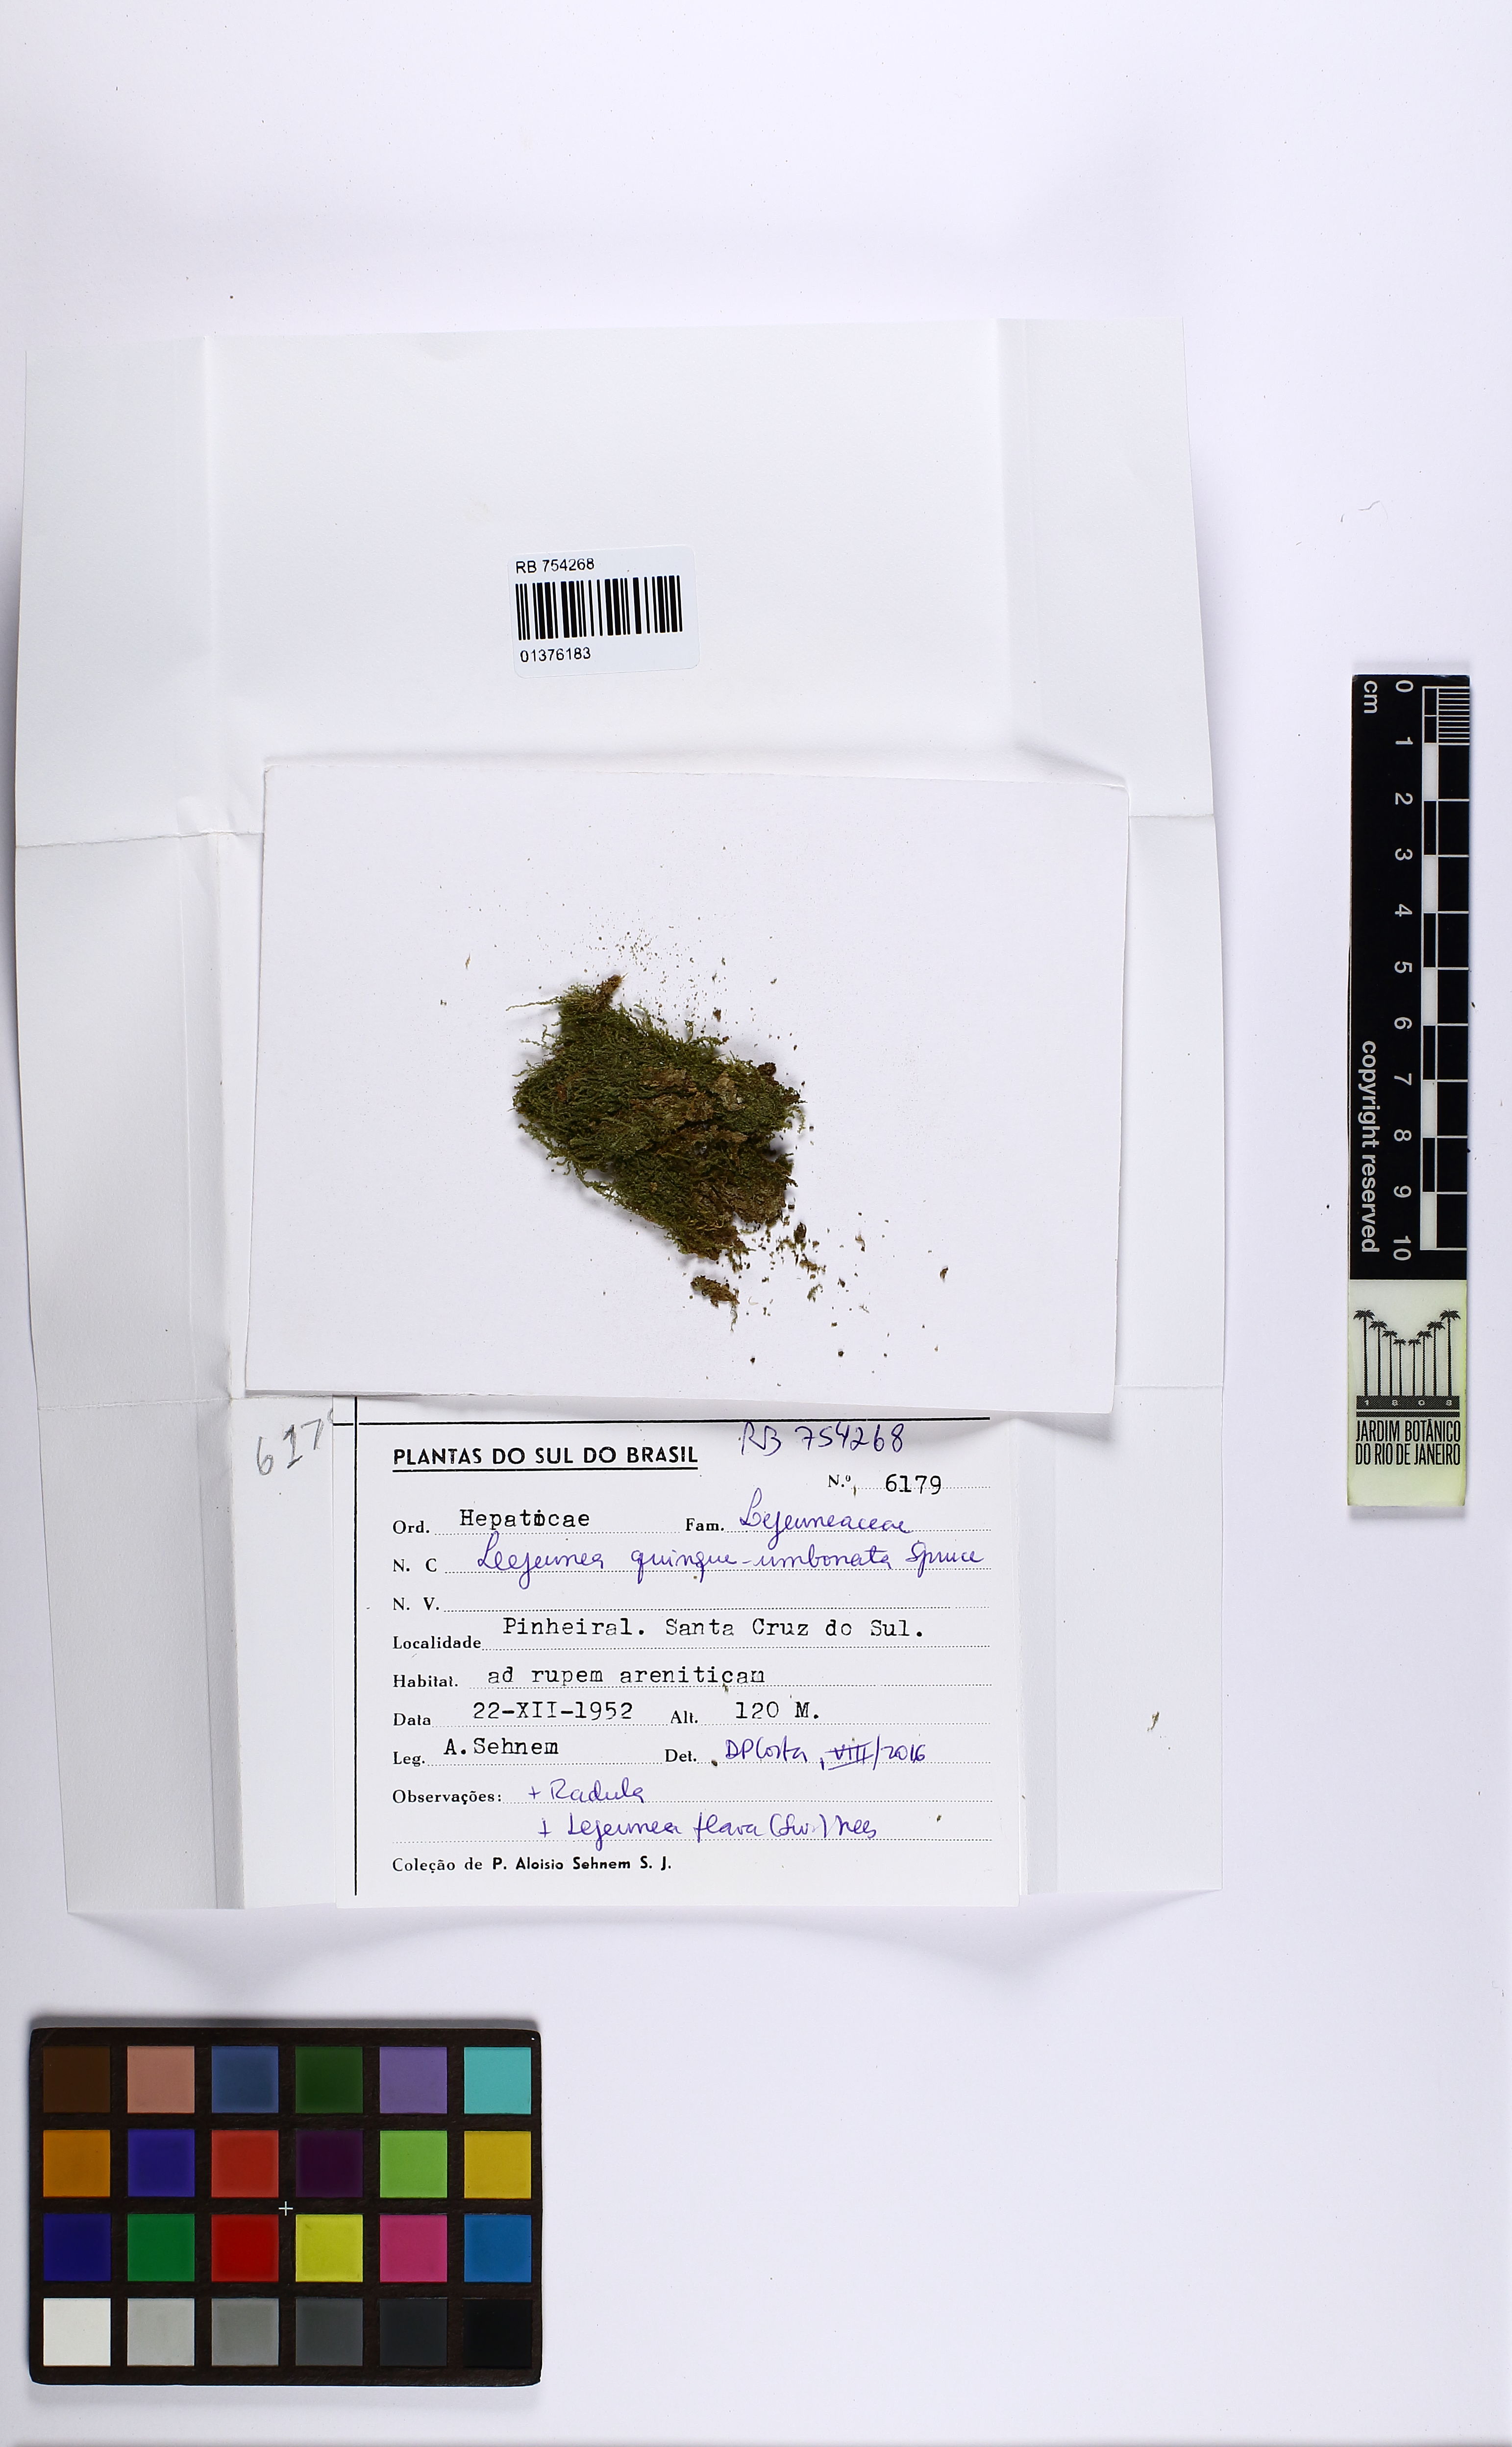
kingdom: Plantae
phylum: Marchantiophyta
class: Jungermanniopsida
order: Porellales
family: Lejeuneaceae
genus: Lejeunea
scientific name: Lejeunea quinqueumbonata
